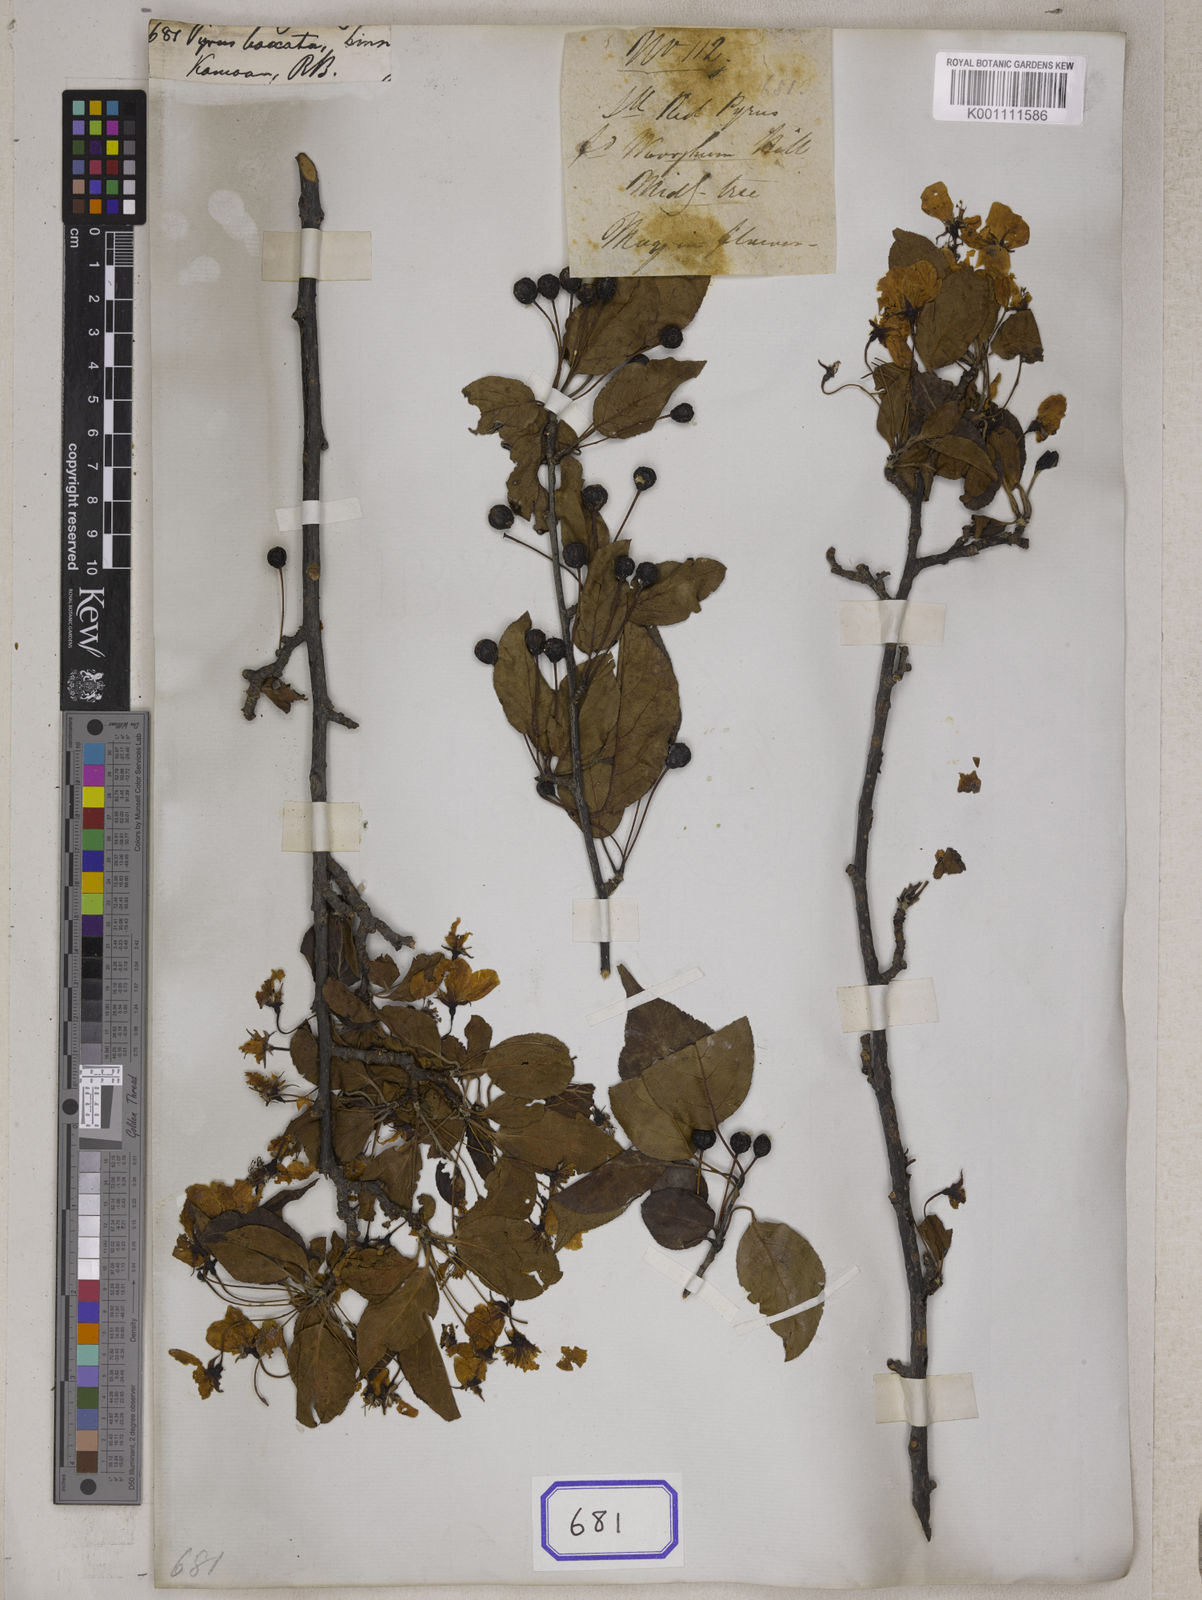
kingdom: Plantae
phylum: Tracheophyta
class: Magnoliopsida
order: Rosales
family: Rosaceae
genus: Malus
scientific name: Malus baccata
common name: Siberian crab
